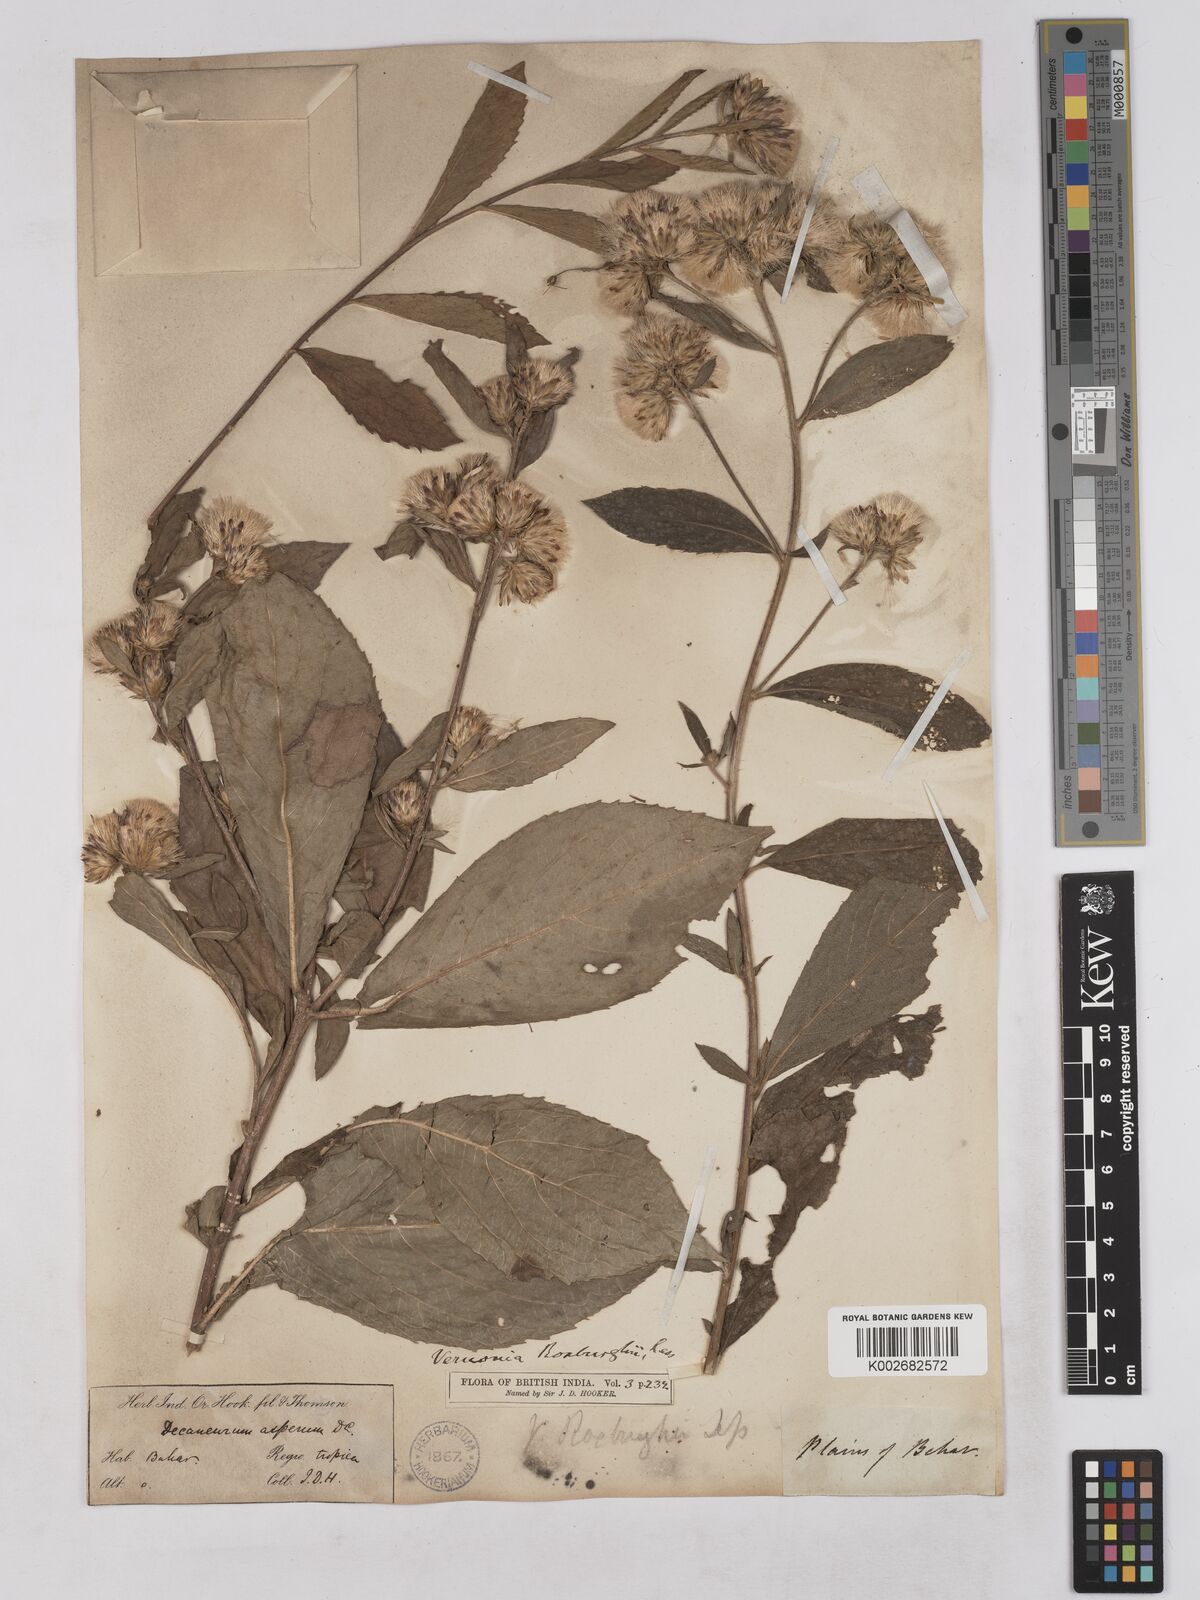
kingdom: Plantae
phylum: Tracheophyta
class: Magnoliopsida
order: Asterales
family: Asteraceae
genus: Acilepis
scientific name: Acilepis aspera
